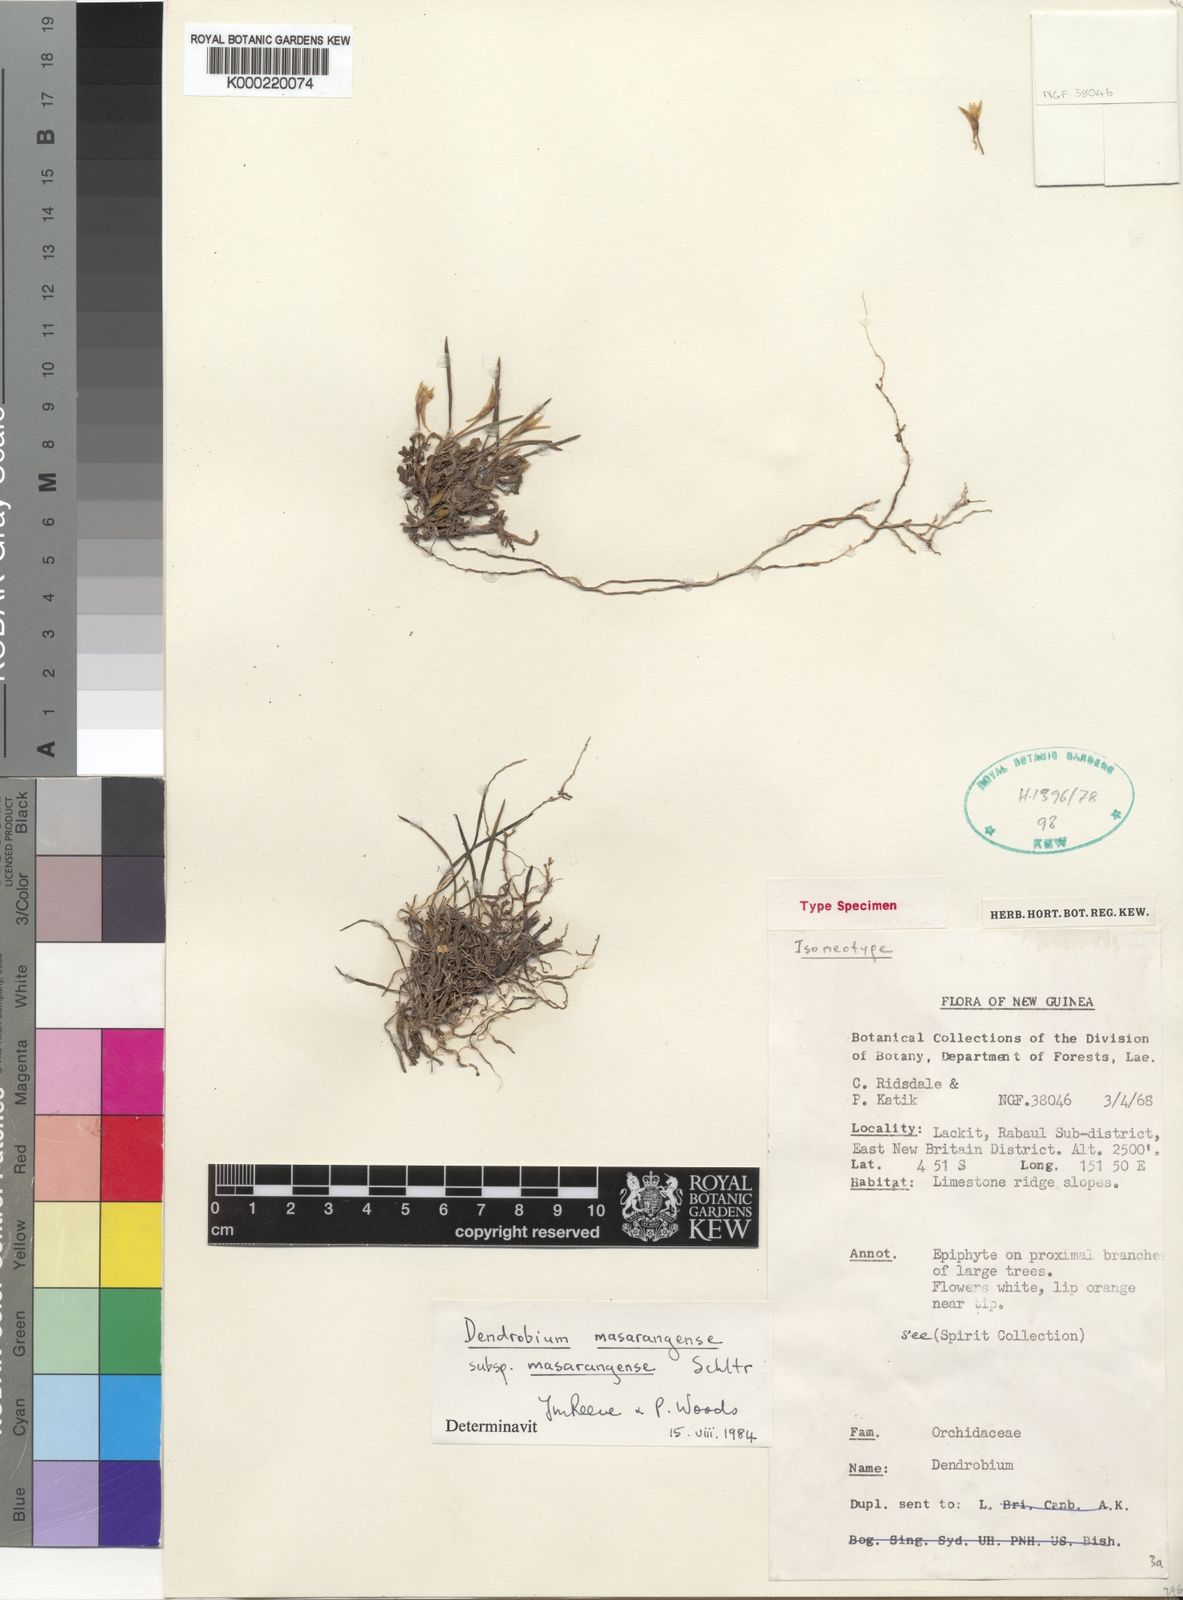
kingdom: Plantae
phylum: Tracheophyta
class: Liliopsida
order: Asparagales
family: Orchidaceae
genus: Dendrobium
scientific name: Dendrobium masarangense
